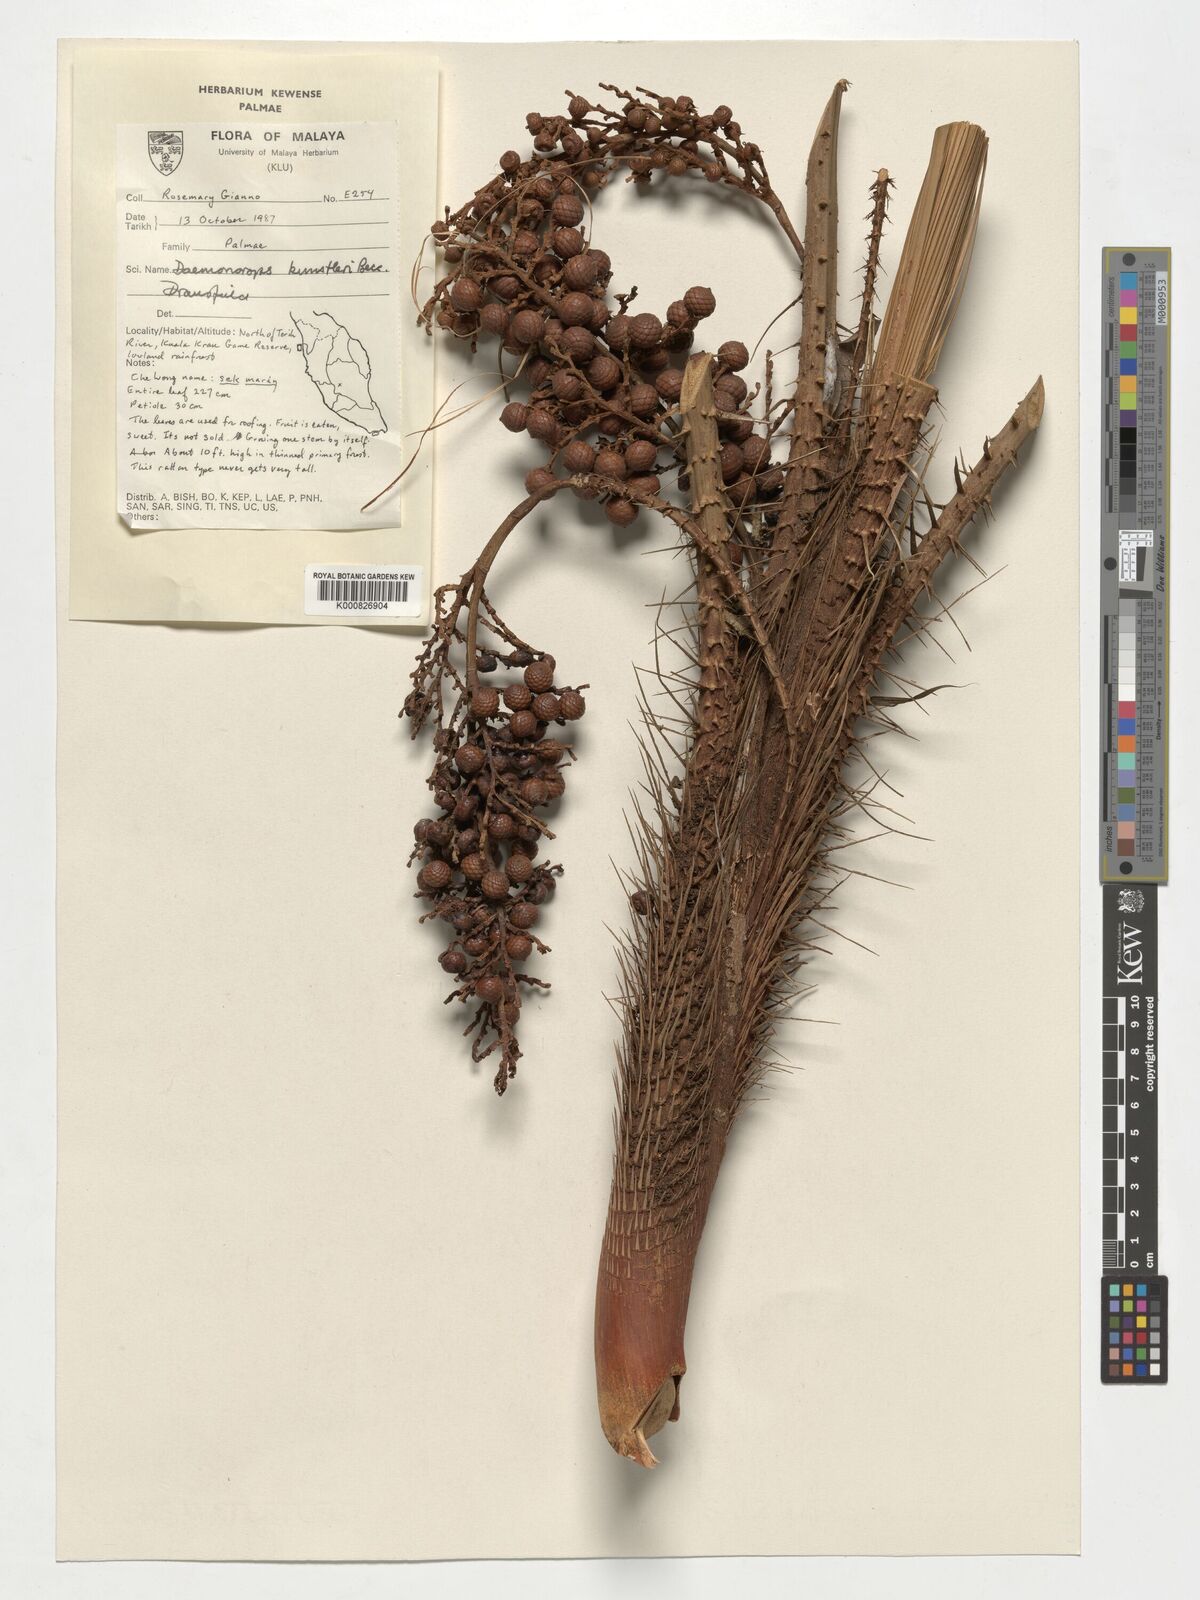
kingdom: Plantae
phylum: Tracheophyta
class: Liliopsida
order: Arecales
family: Arecaceae
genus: Calamus
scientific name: Calamus kunstleri
